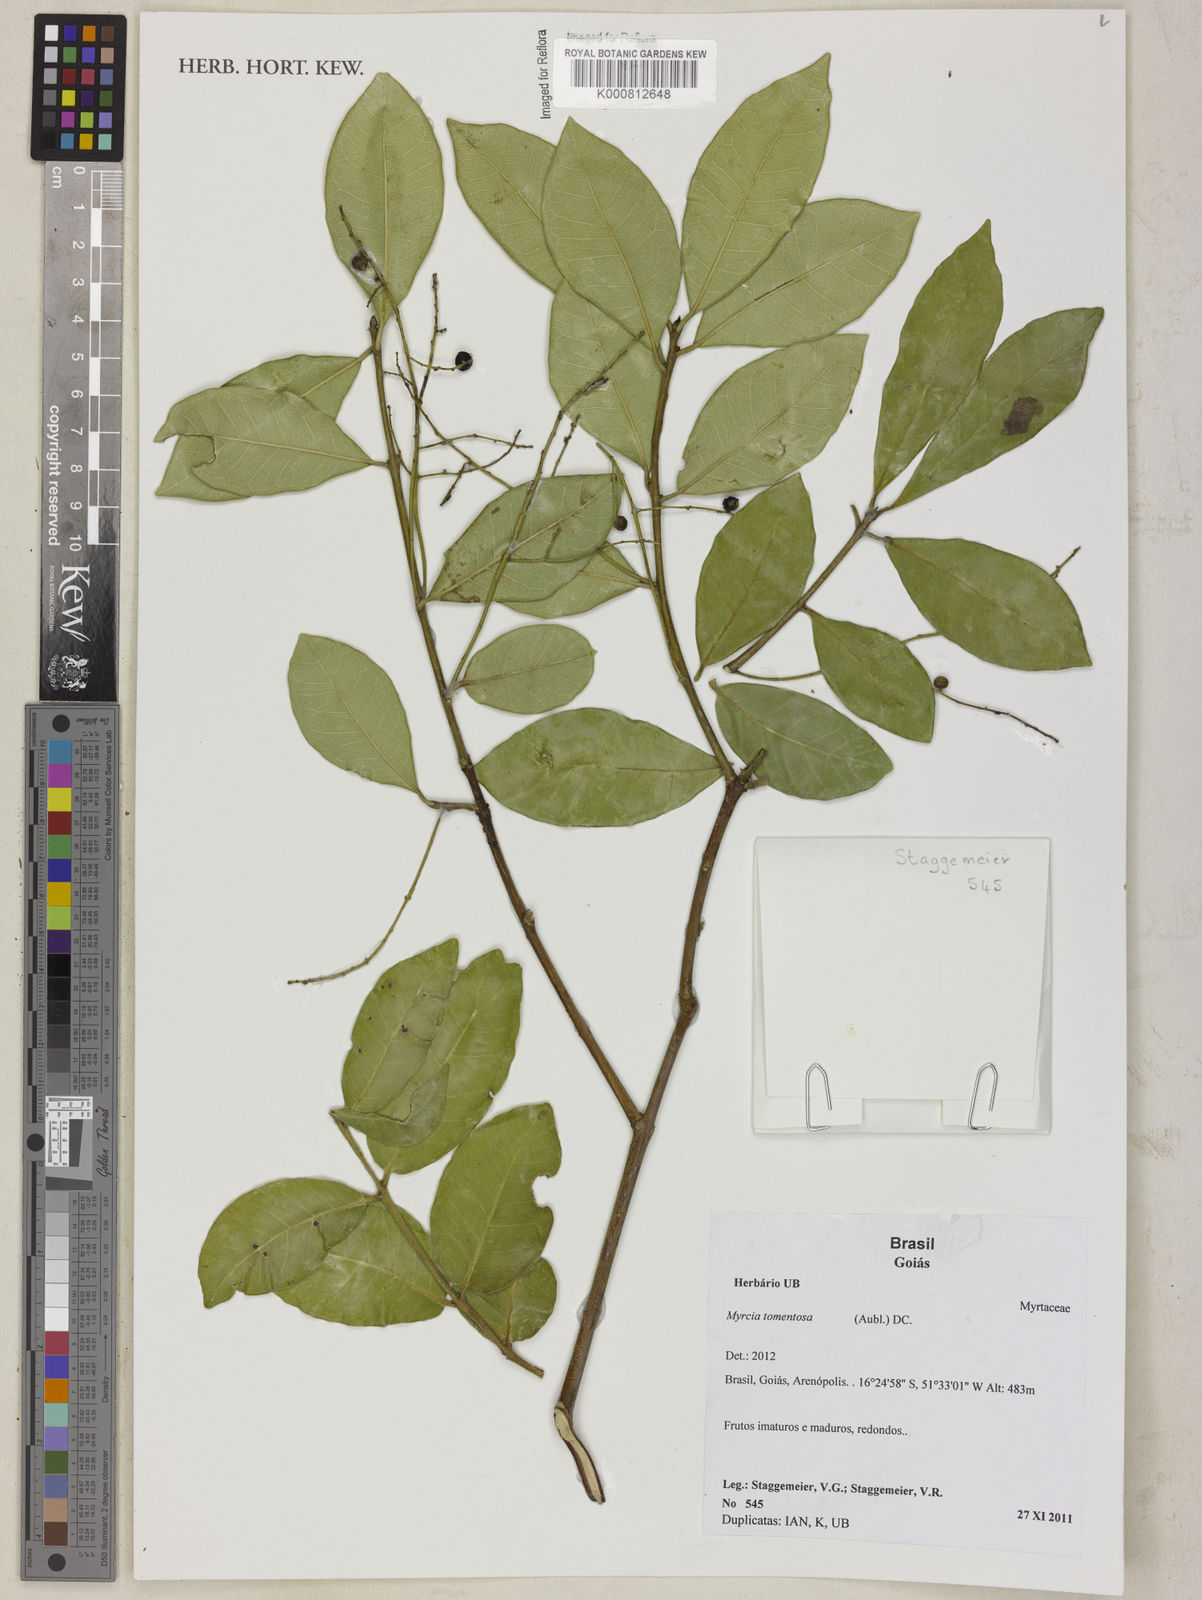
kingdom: Plantae
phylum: Tracheophyta
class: Magnoliopsida
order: Myrtales
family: Myrtaceae
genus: Myrcia
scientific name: Myrcia tomentosa
